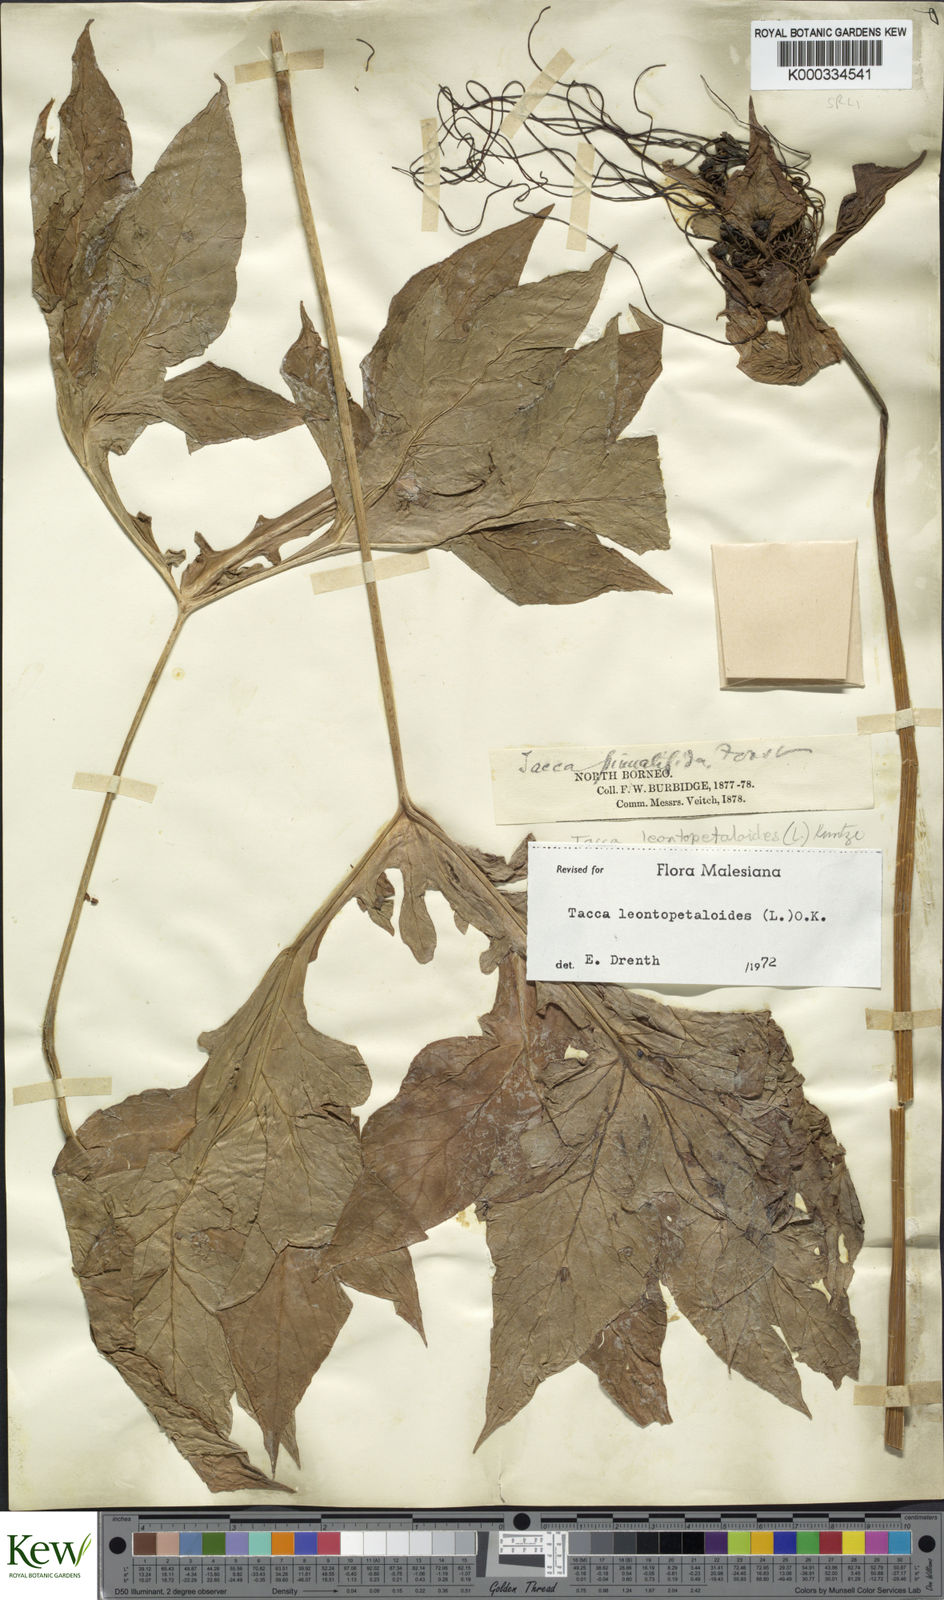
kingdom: Plantae
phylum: Tracheophyta
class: Liliopsida
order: Dioscoreales
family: Dioscoreaceae
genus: Tacca
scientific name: Tacca leontopetaloides
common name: Arrowroot
